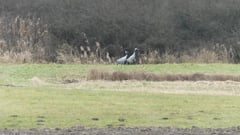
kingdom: Animalia
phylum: Chordata
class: Aves
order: Gruiformes
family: Gruidae
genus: Grus
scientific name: Grus grus
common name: Common crane
